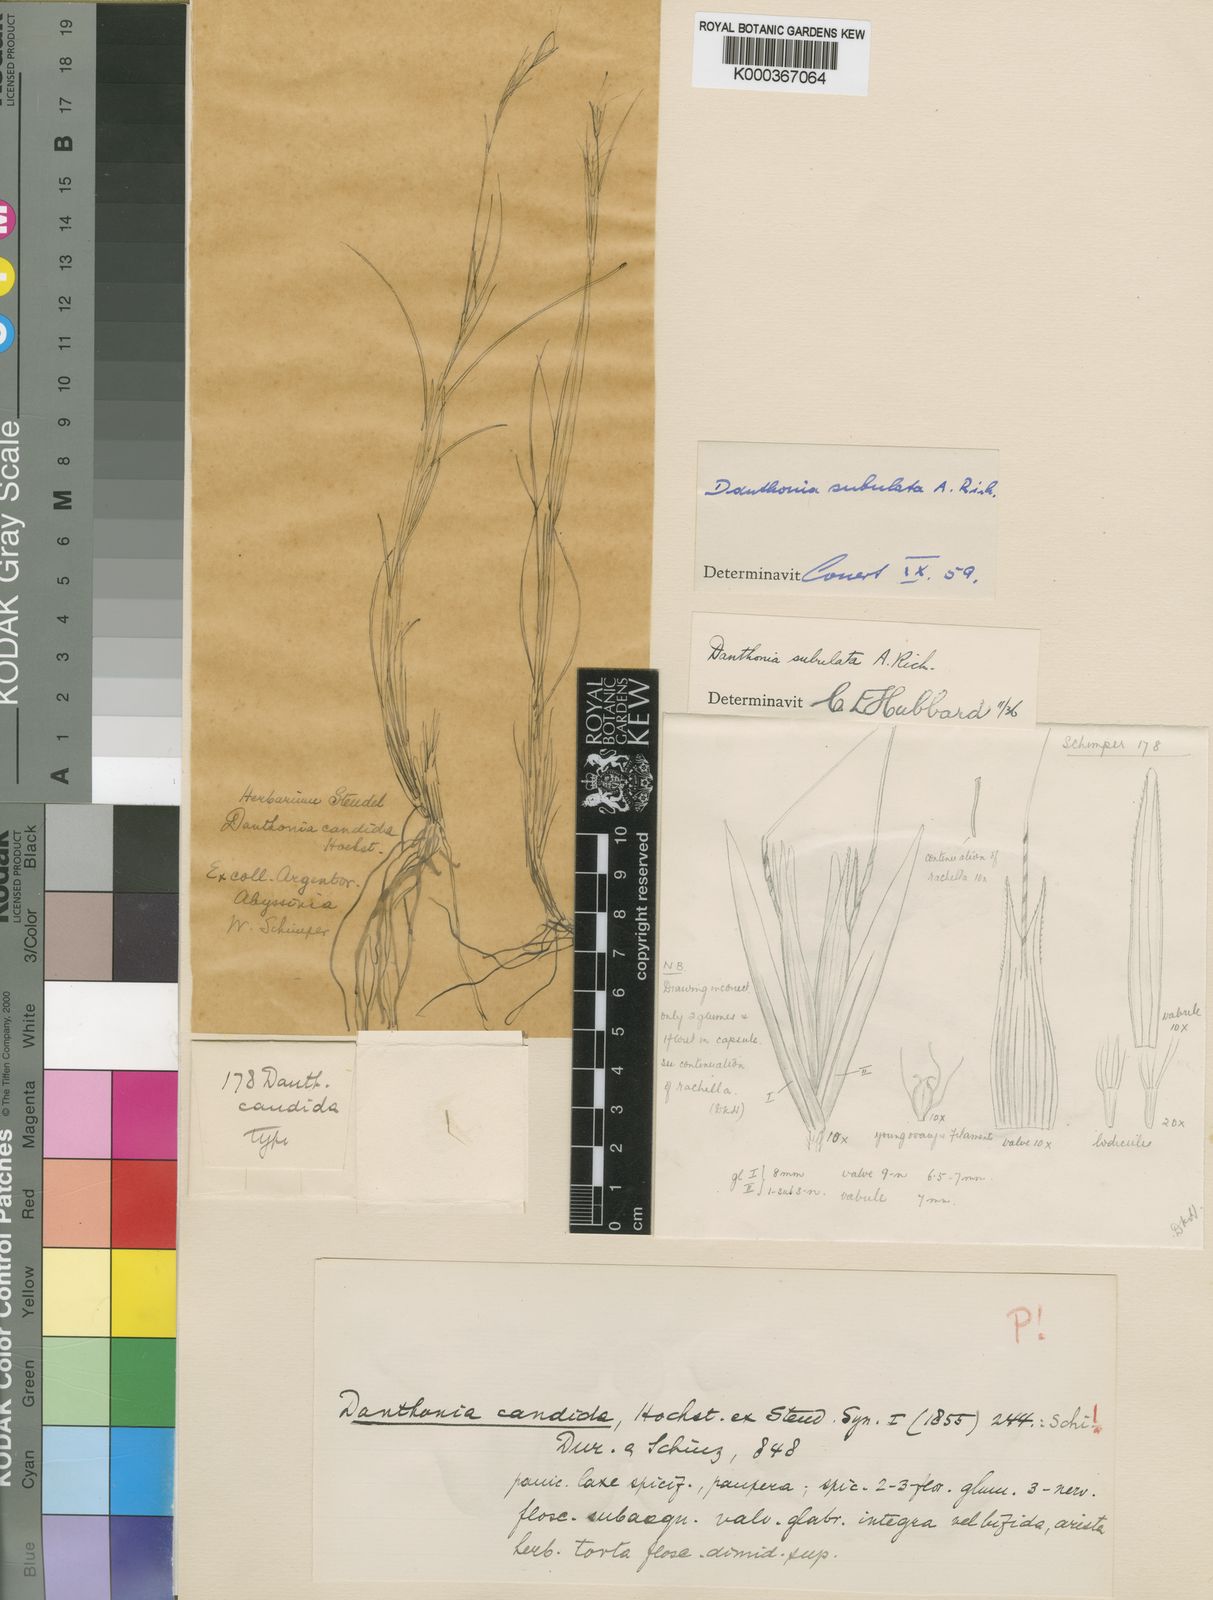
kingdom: Plantae
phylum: Tracheophyta
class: Liliopsida
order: Poales
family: Poaceae
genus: Tenaxia
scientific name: Tenaxia subulata
